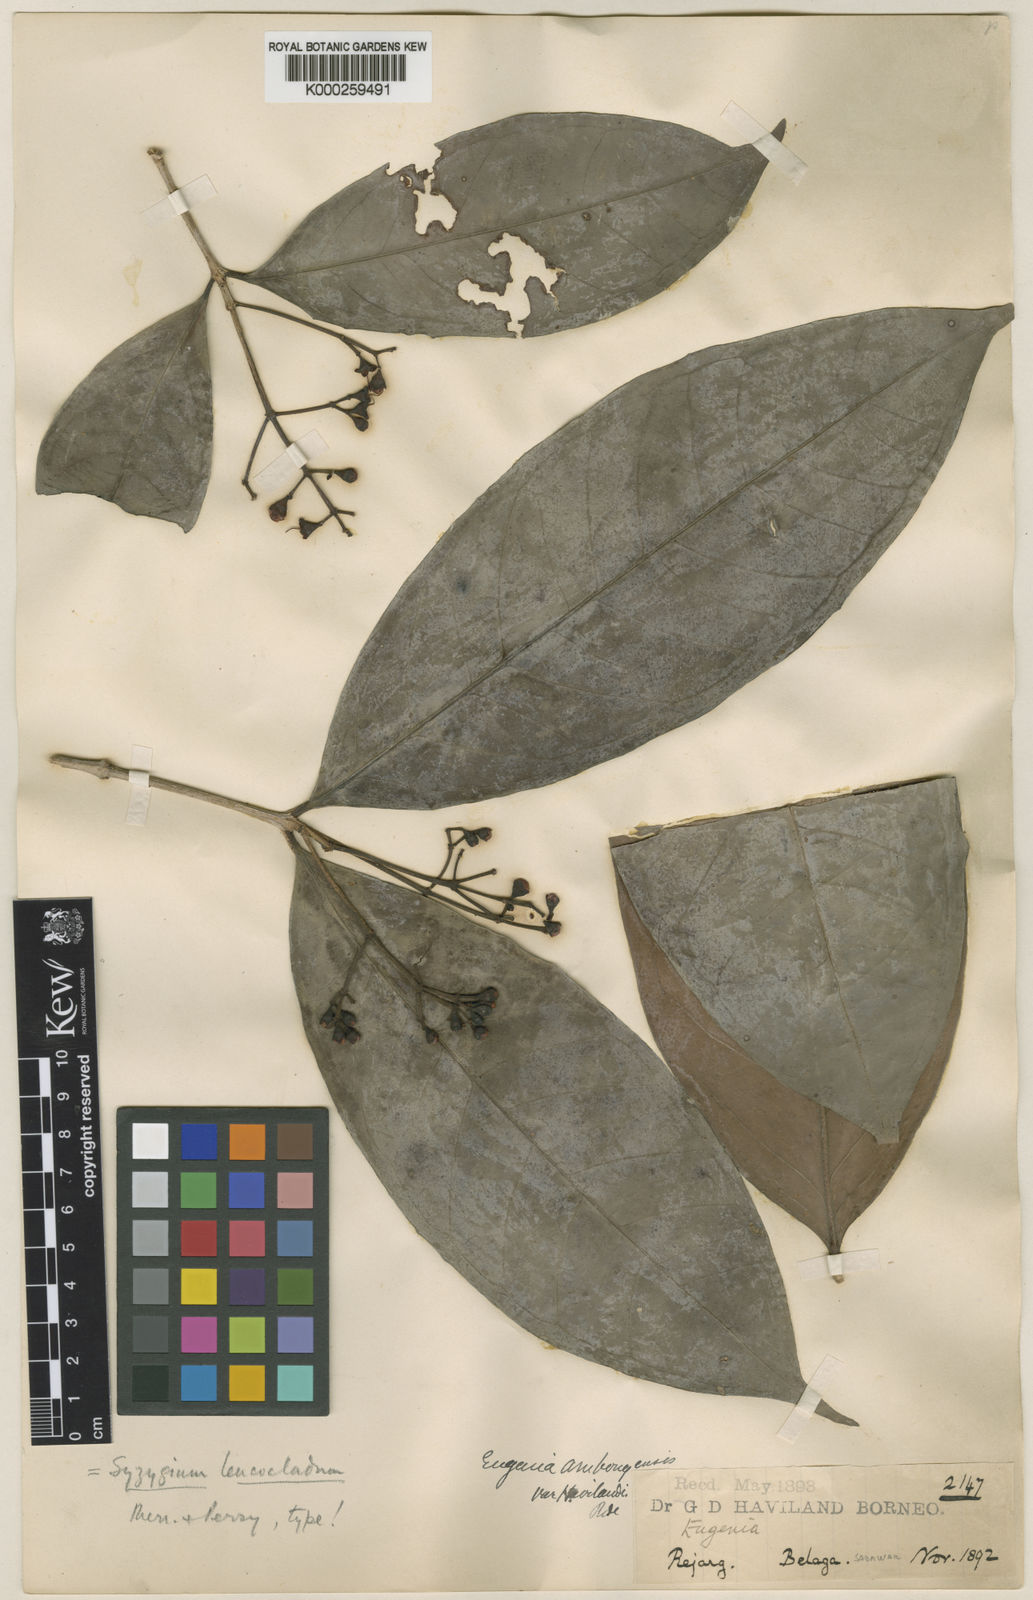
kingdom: Plantae
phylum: Tracheophyta
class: Magnoliopsida
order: Myrtales
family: Myrtaceae
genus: Syzygium
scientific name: Syzygium leucocladum
